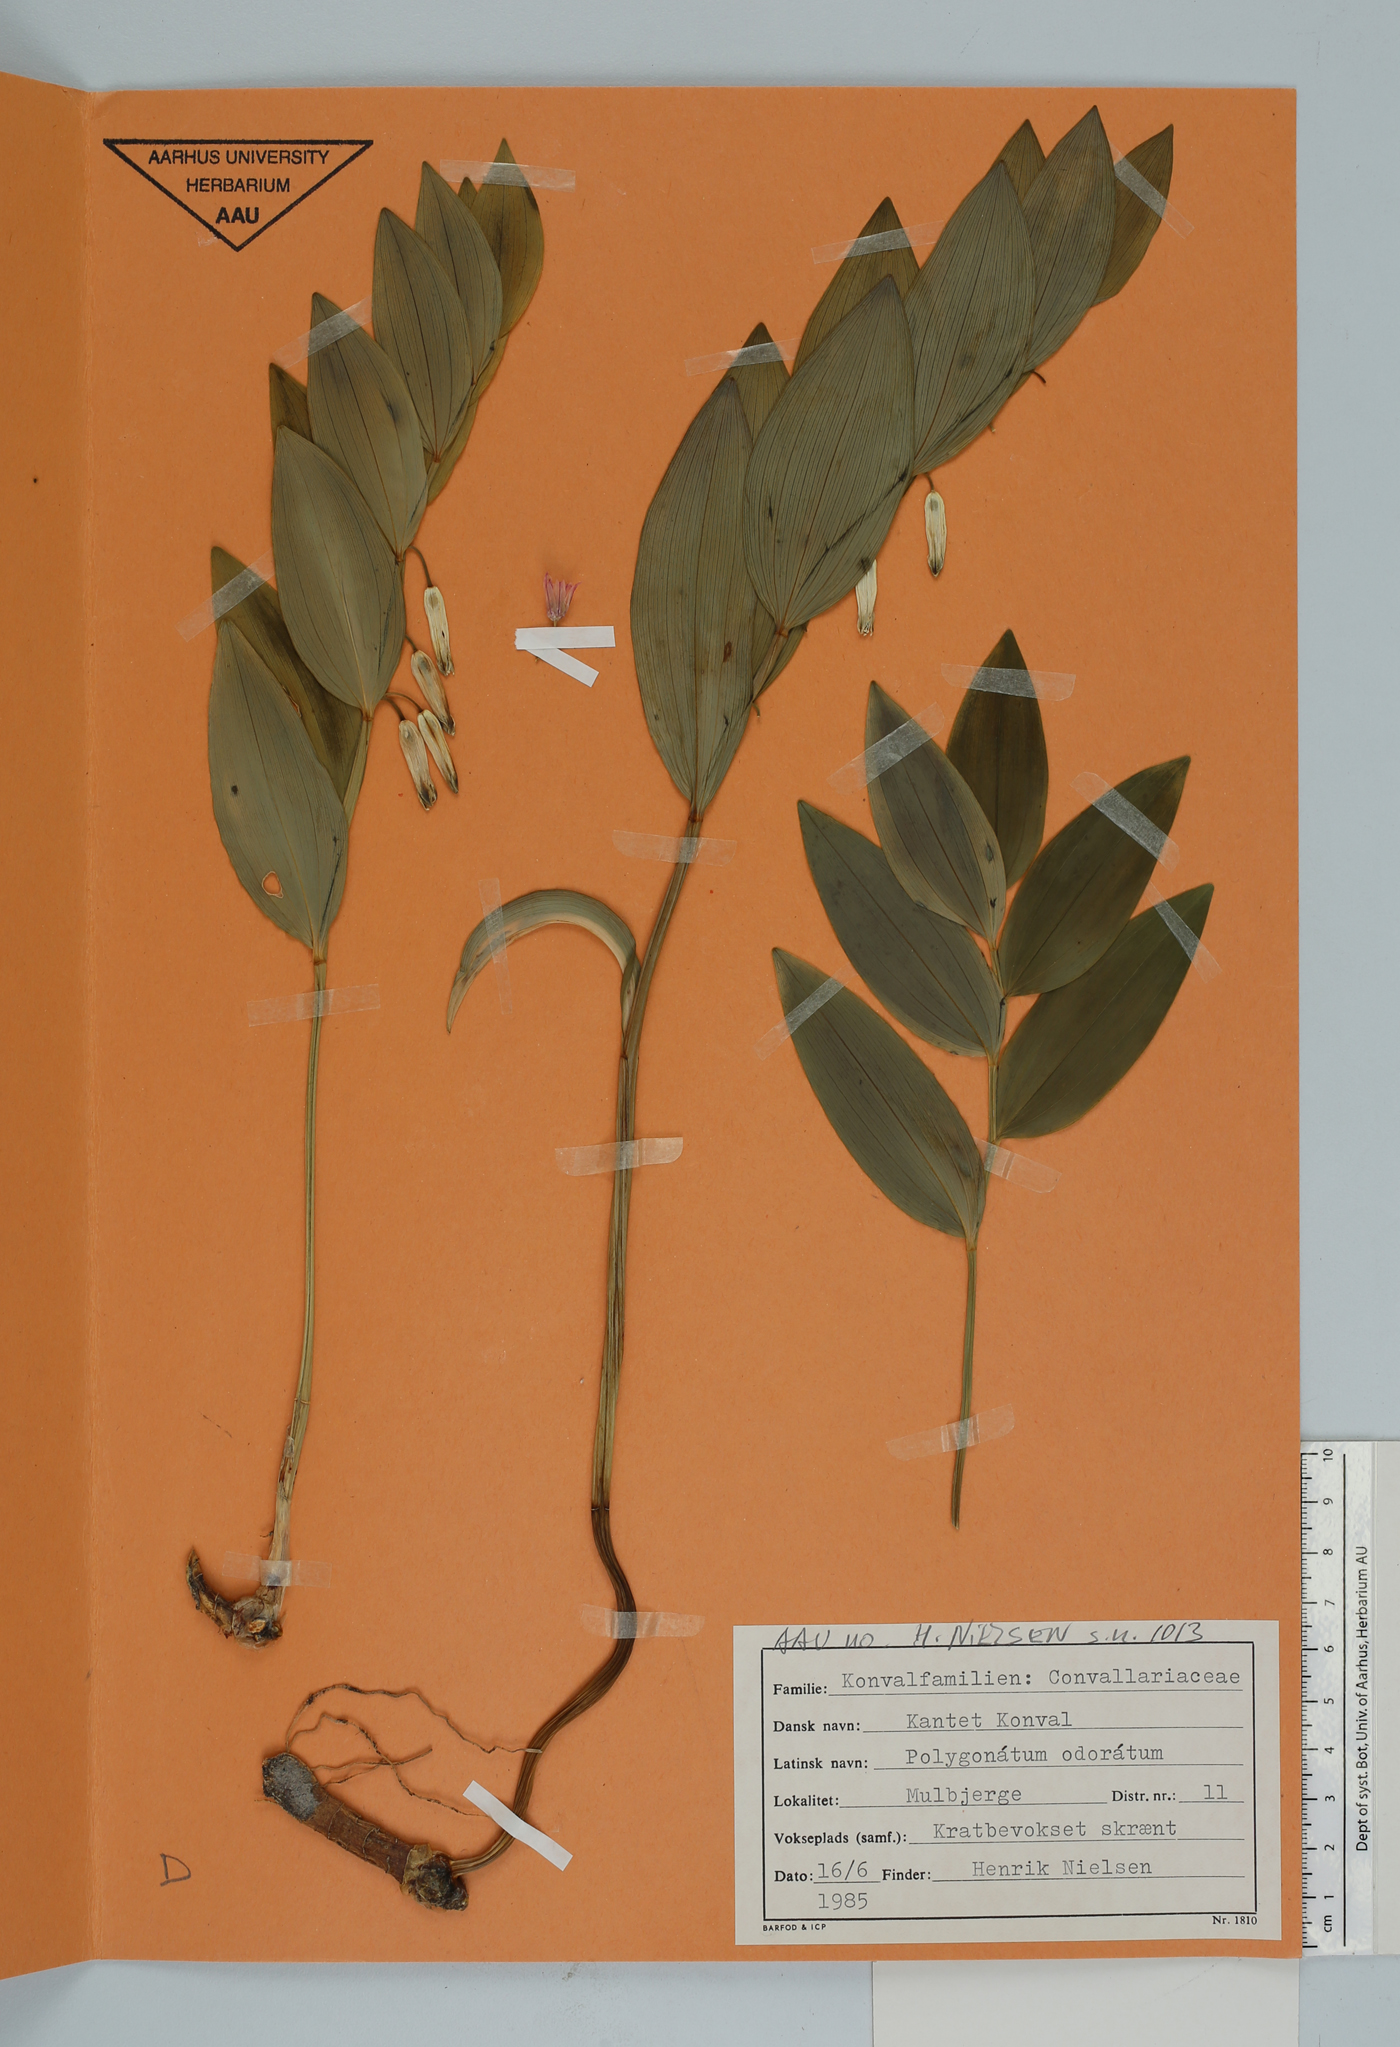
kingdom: Plantae
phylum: Tracheophyta
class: Liliopsida
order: Asparagales
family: Asparagaceae
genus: Polygonatum
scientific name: Polygonatum odoratum
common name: Angular solomon's-seal
